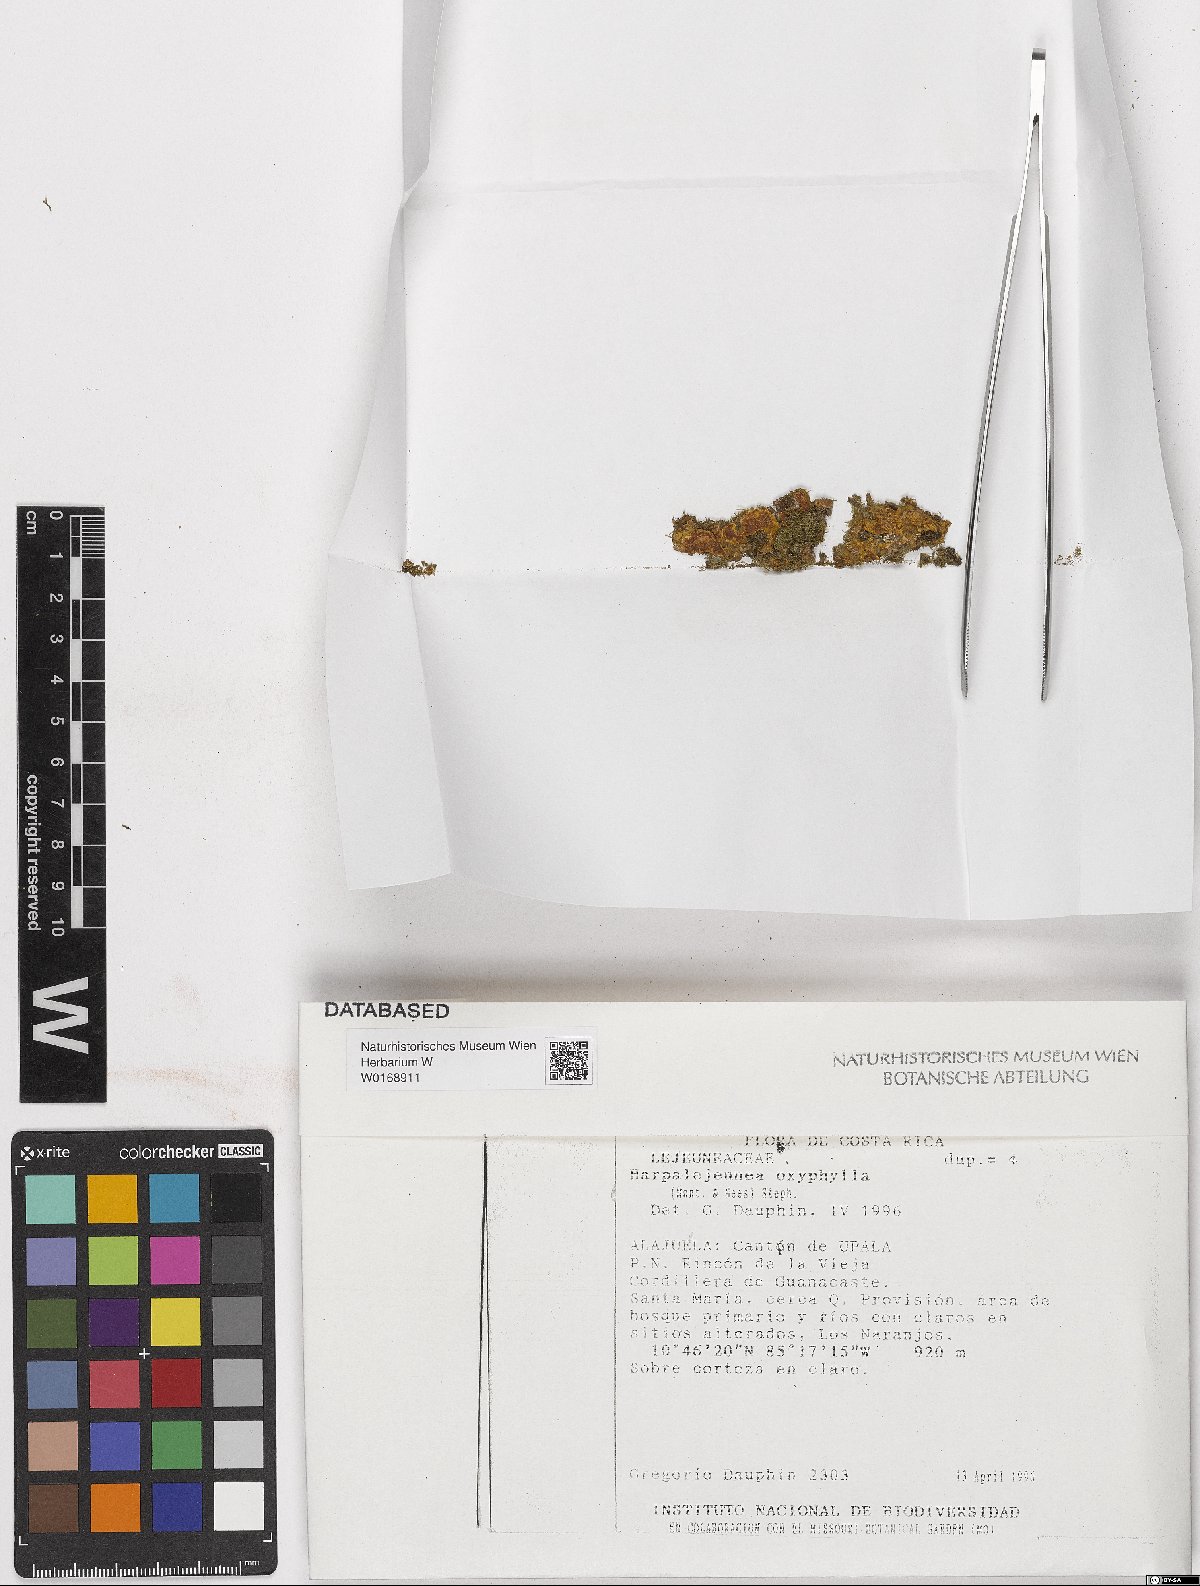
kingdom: Plantae
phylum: Marchantiophyta
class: Jungermanniopsida
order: Porellales
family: Lejeuneaceae
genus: Harpalejeunea
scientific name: Harpalejeunea
